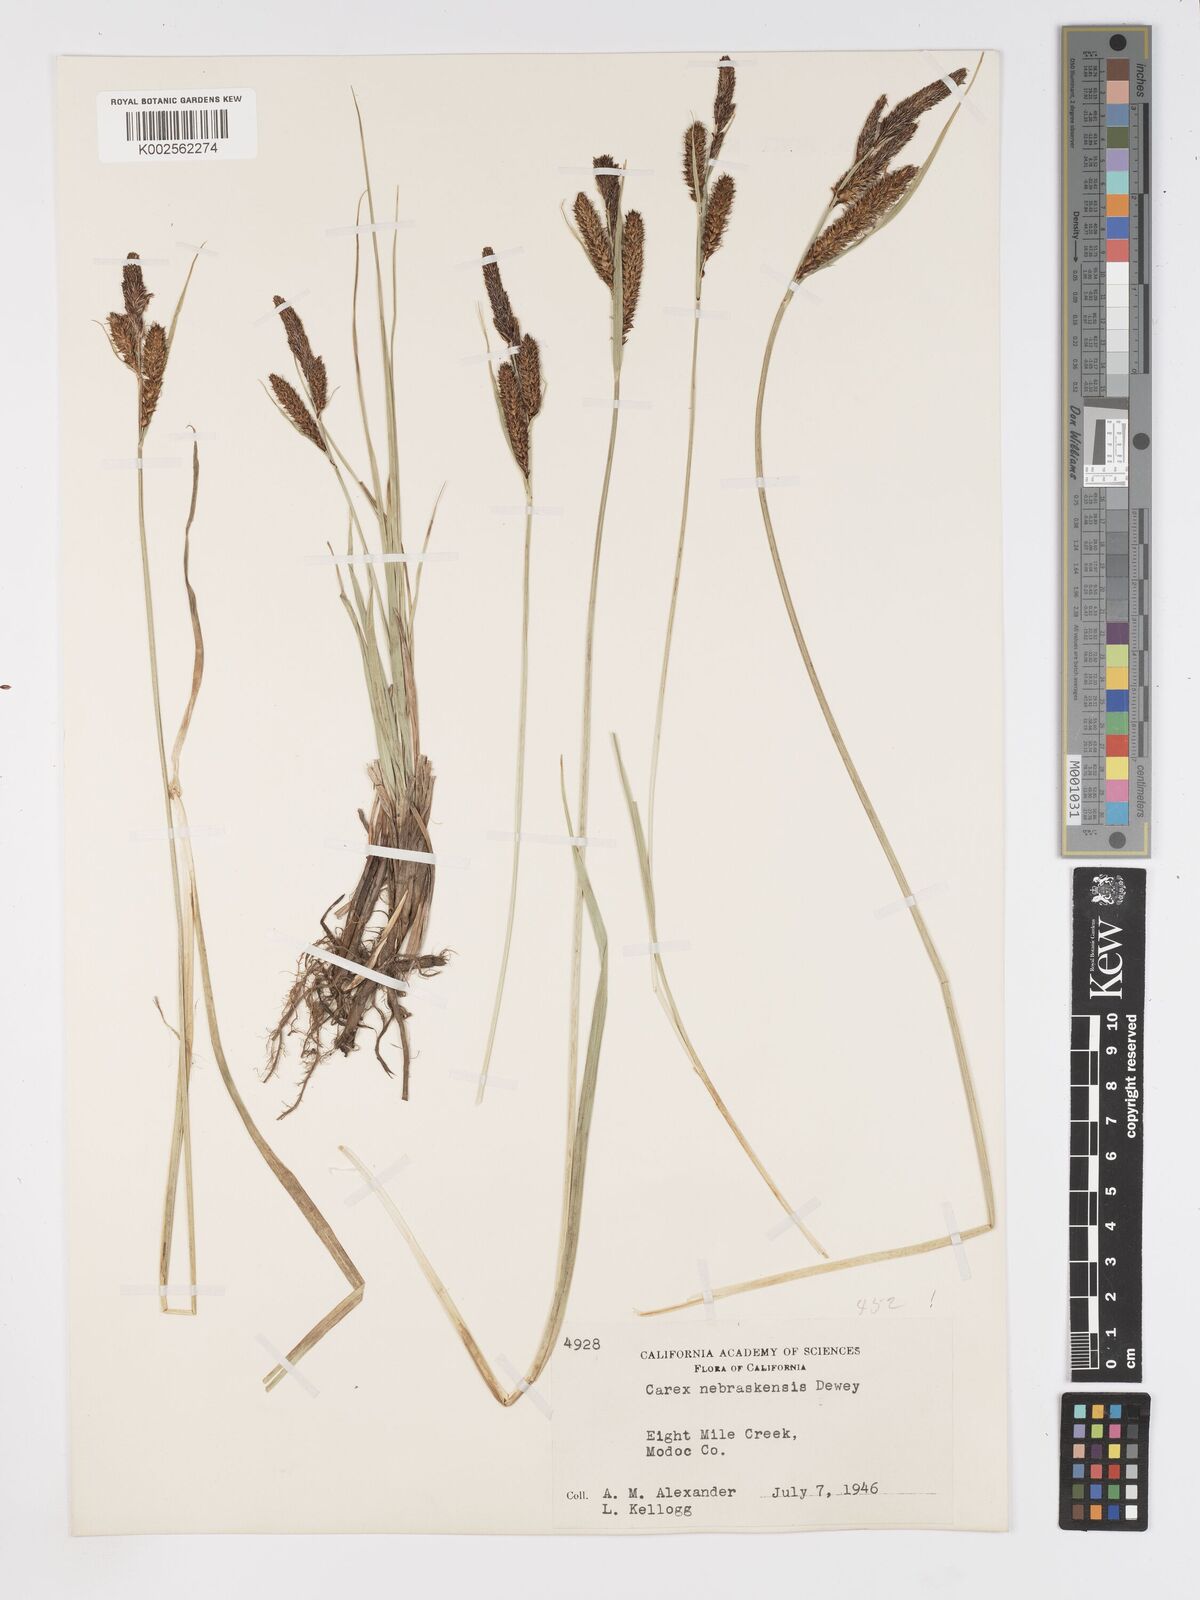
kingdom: Plantae
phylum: Tracheophyta
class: Liliopsida
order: Poales
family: Cyperaceae
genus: Carex
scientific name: Carex nebrascensis
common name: Nebraska sedge
